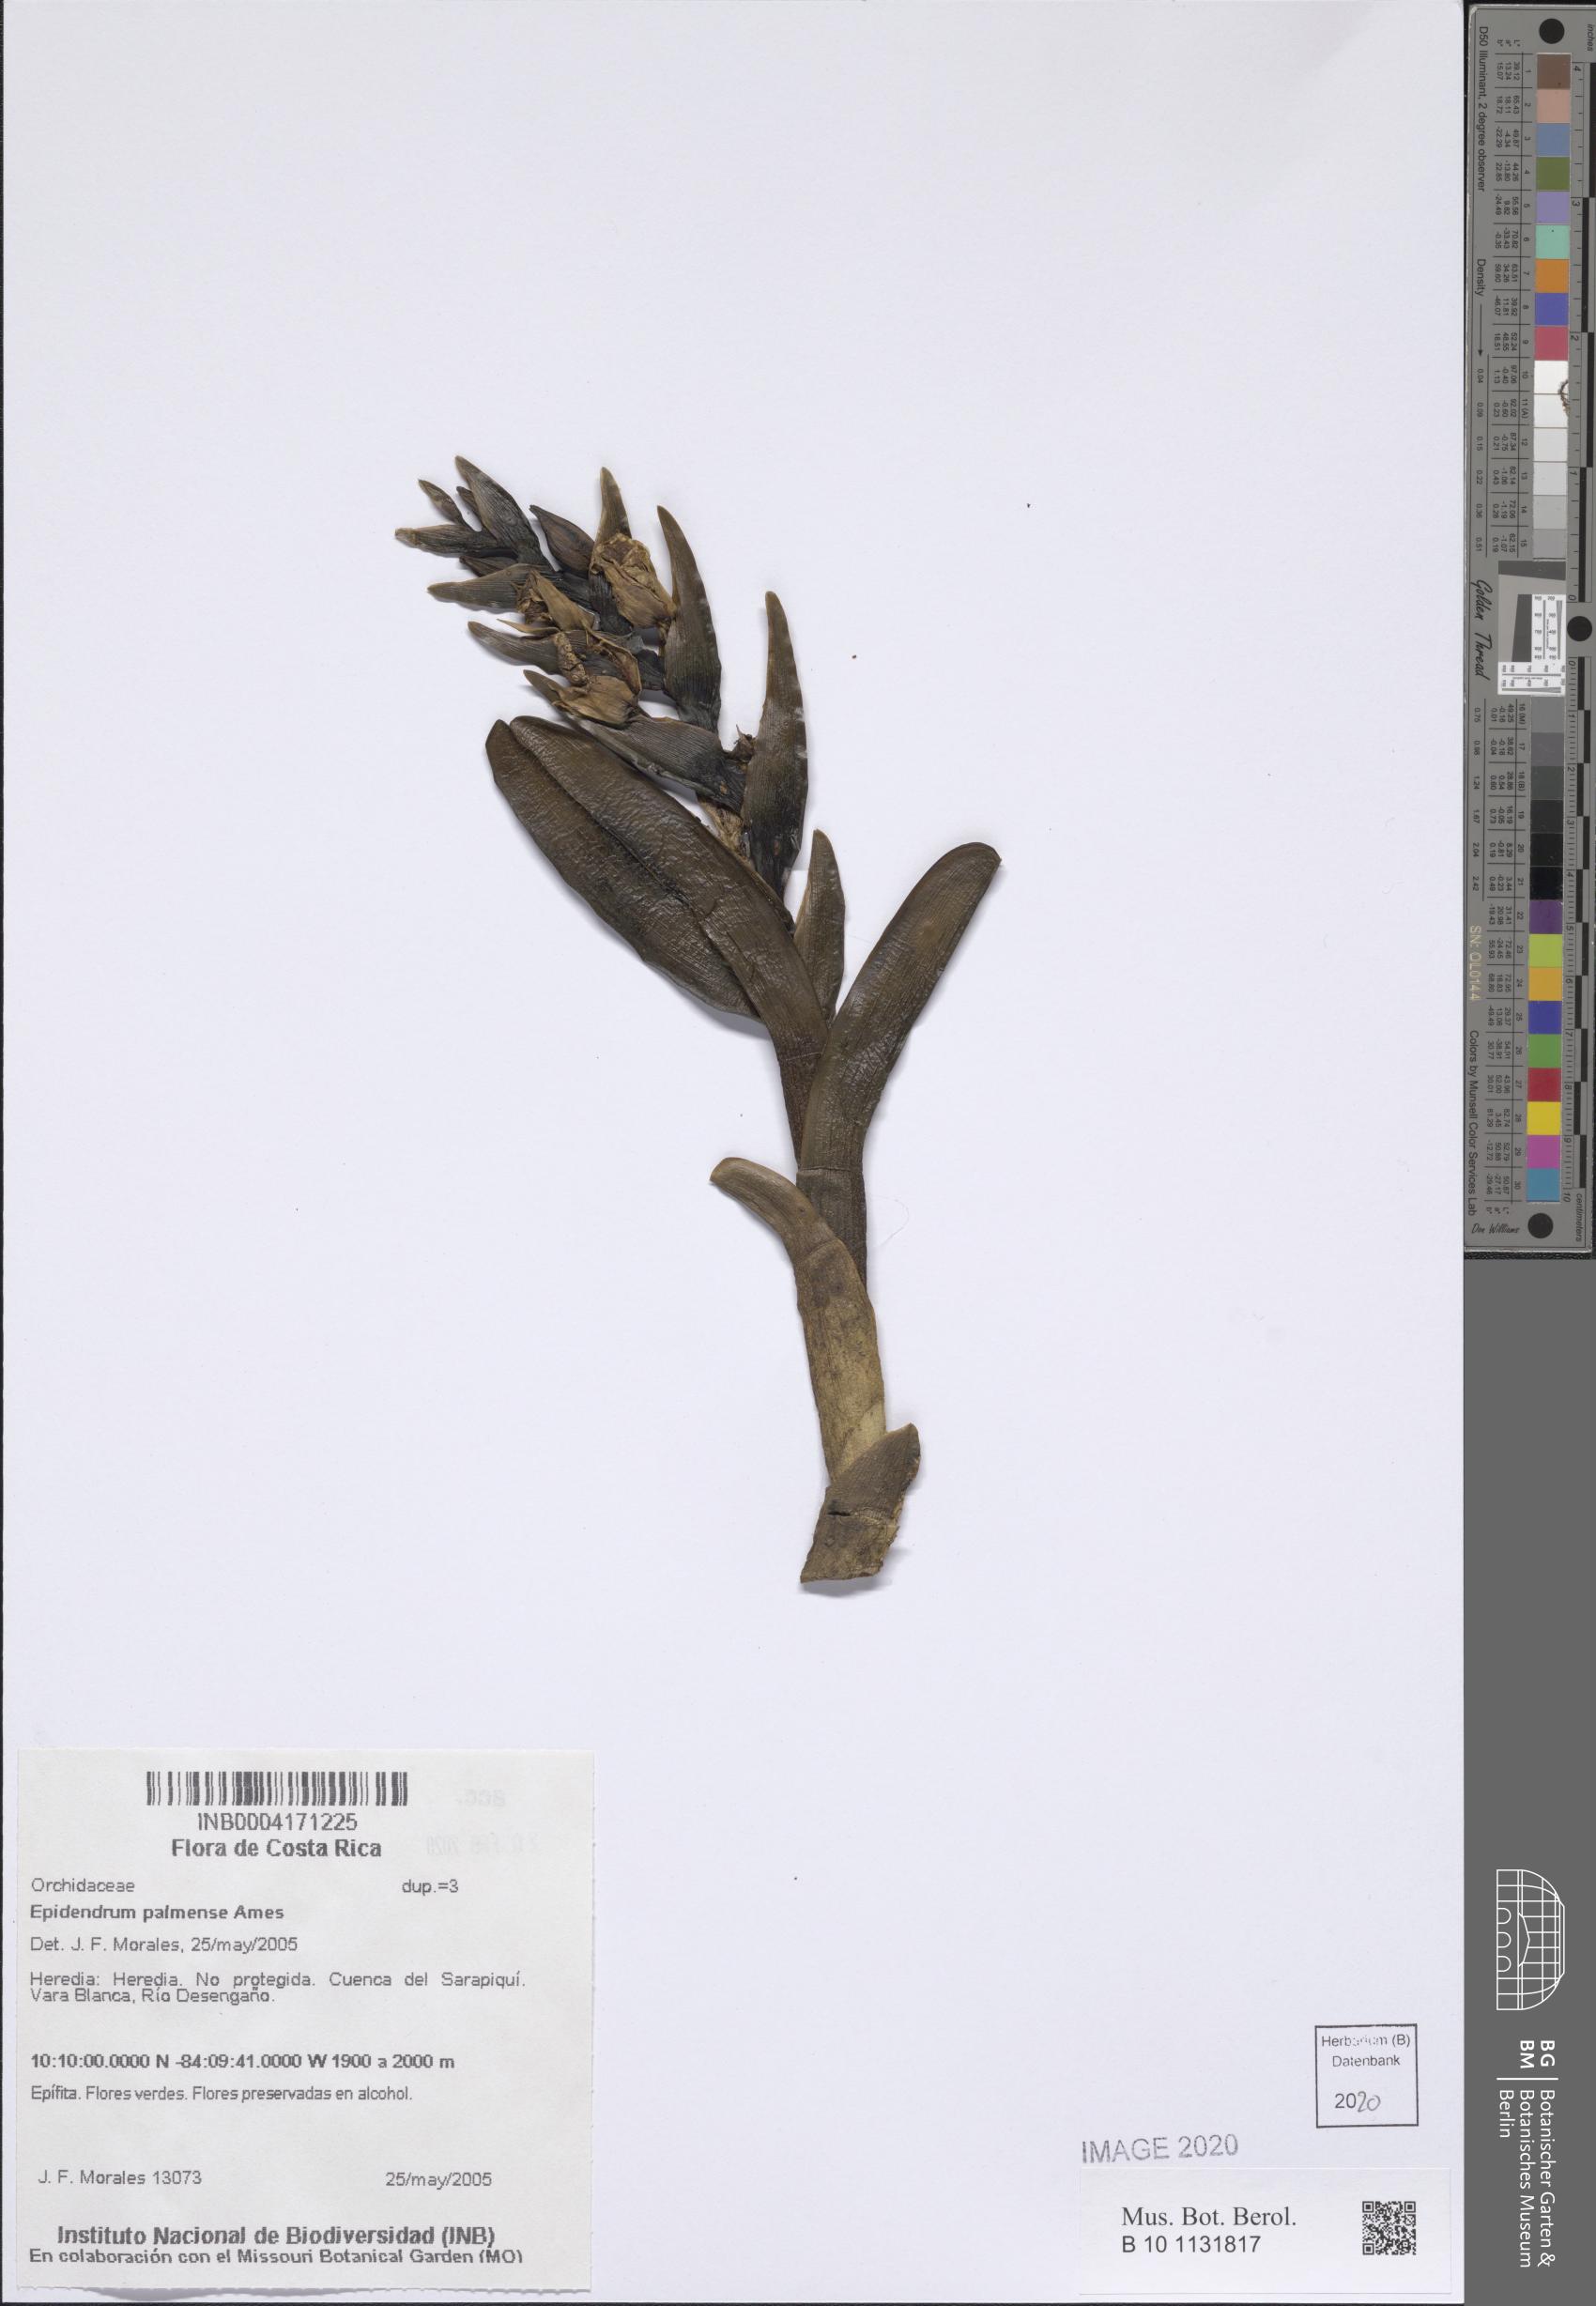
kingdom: Plantae
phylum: Tracheophyta
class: Liliopsida
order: Asparagales
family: Orchidaceae
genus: Epidendrum
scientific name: Epidendrum magnibracteatum
